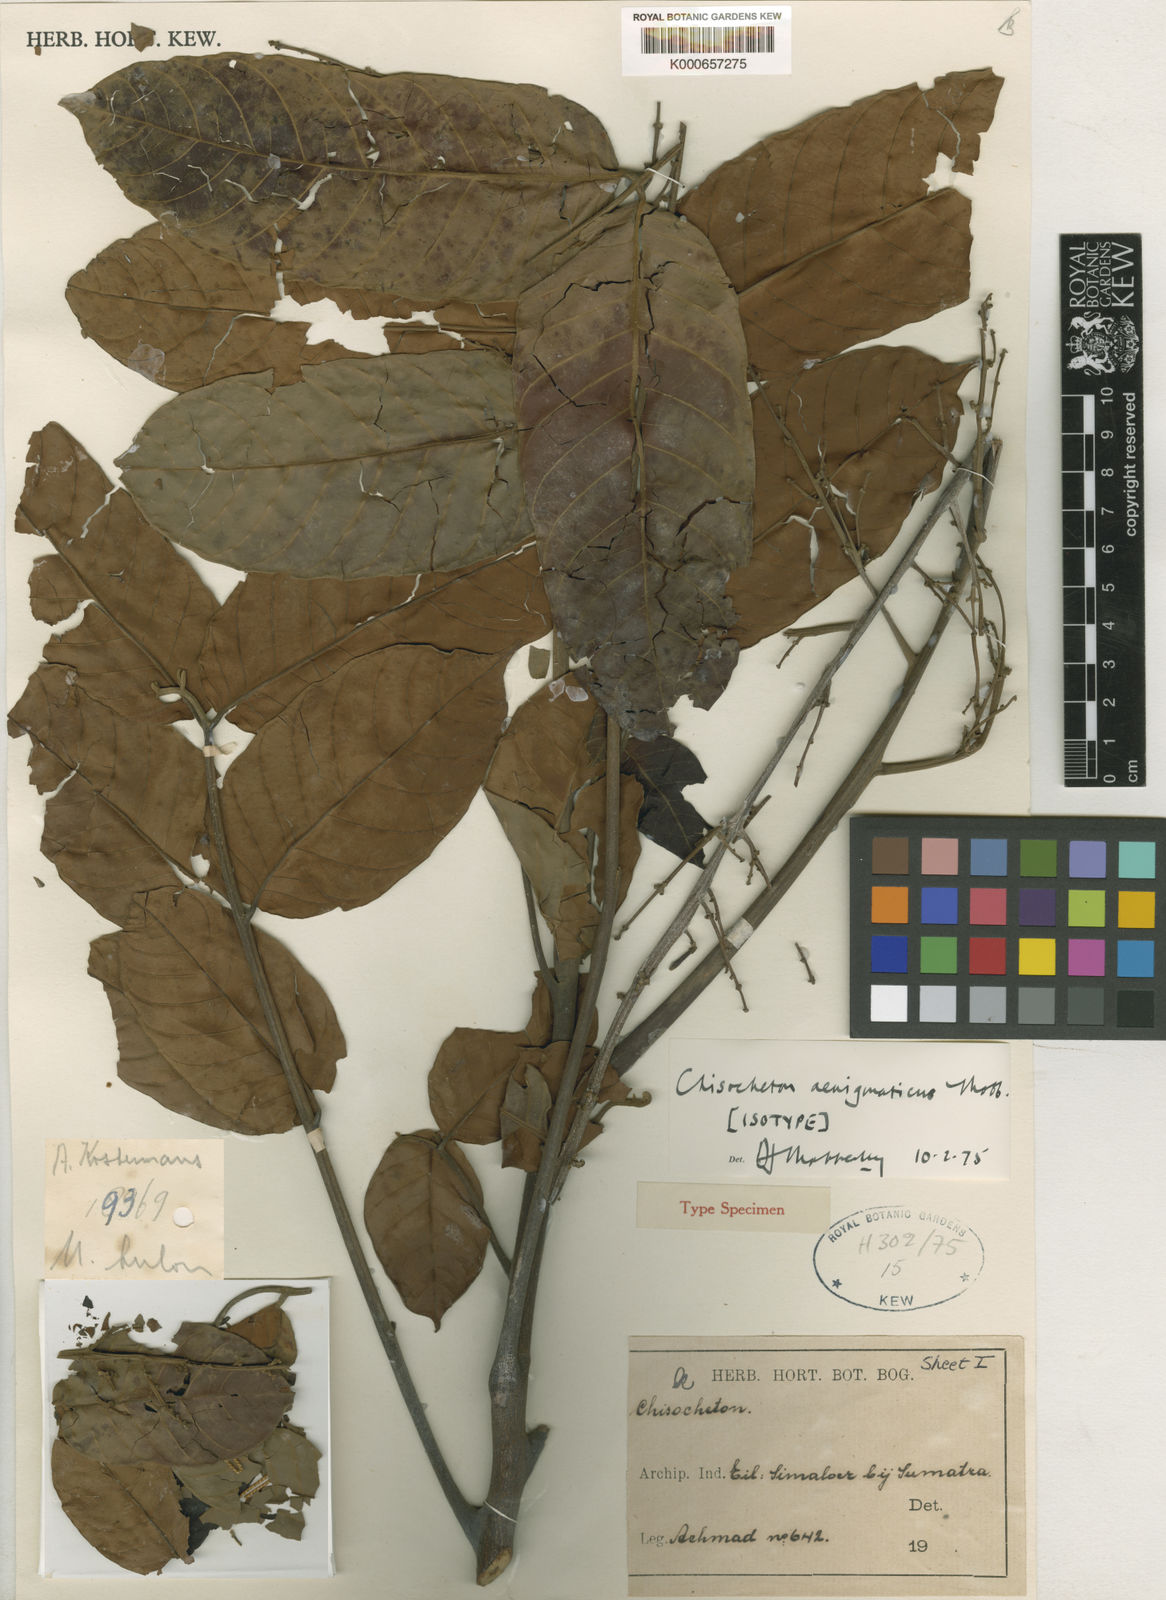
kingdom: Plantae
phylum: Tracheophyta
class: Magnoliopsida
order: Sapindales
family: Meliaceae
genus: Chisocheton
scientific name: Chisocheton aenigmaticus
